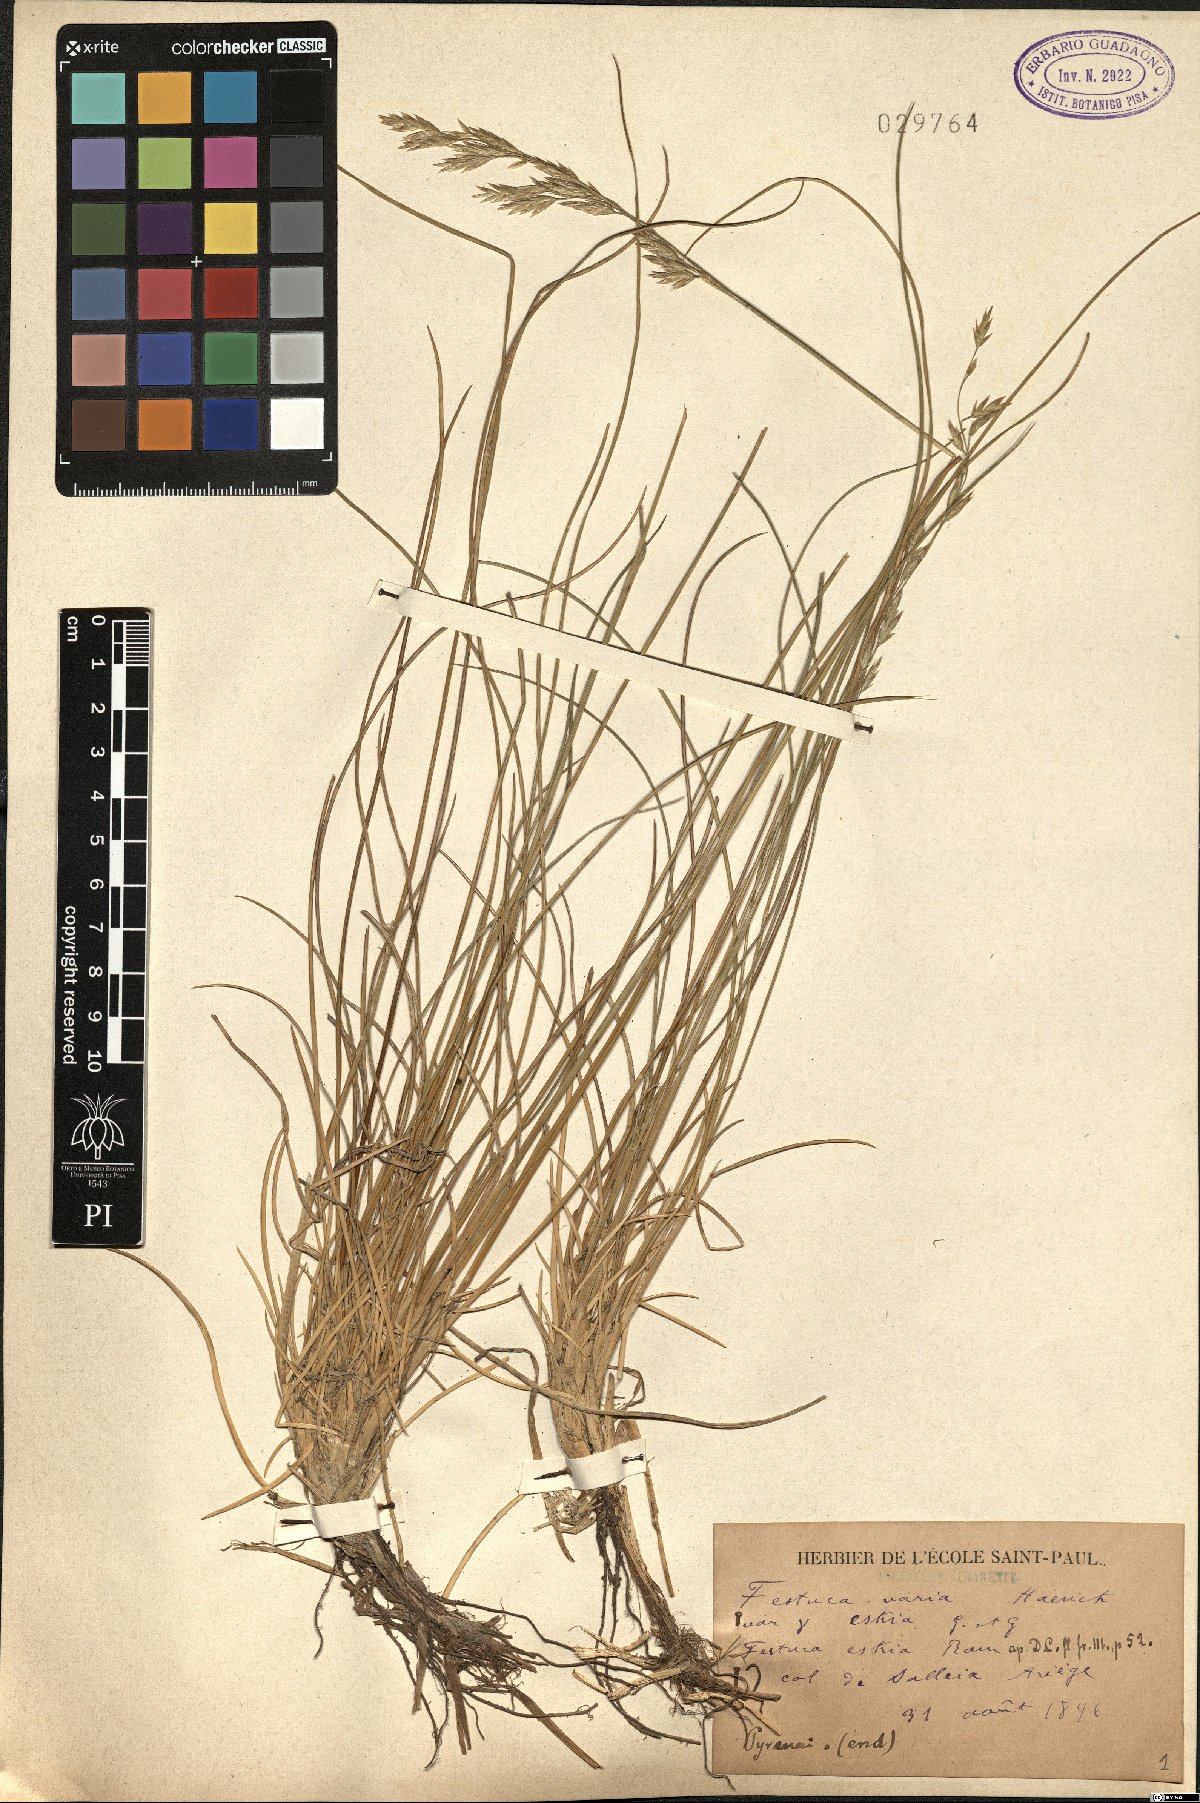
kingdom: Plantae
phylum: Tracheophyta
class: Liliopsida
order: Poales
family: Poaceae
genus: Festuca
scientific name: Festuca eskia
